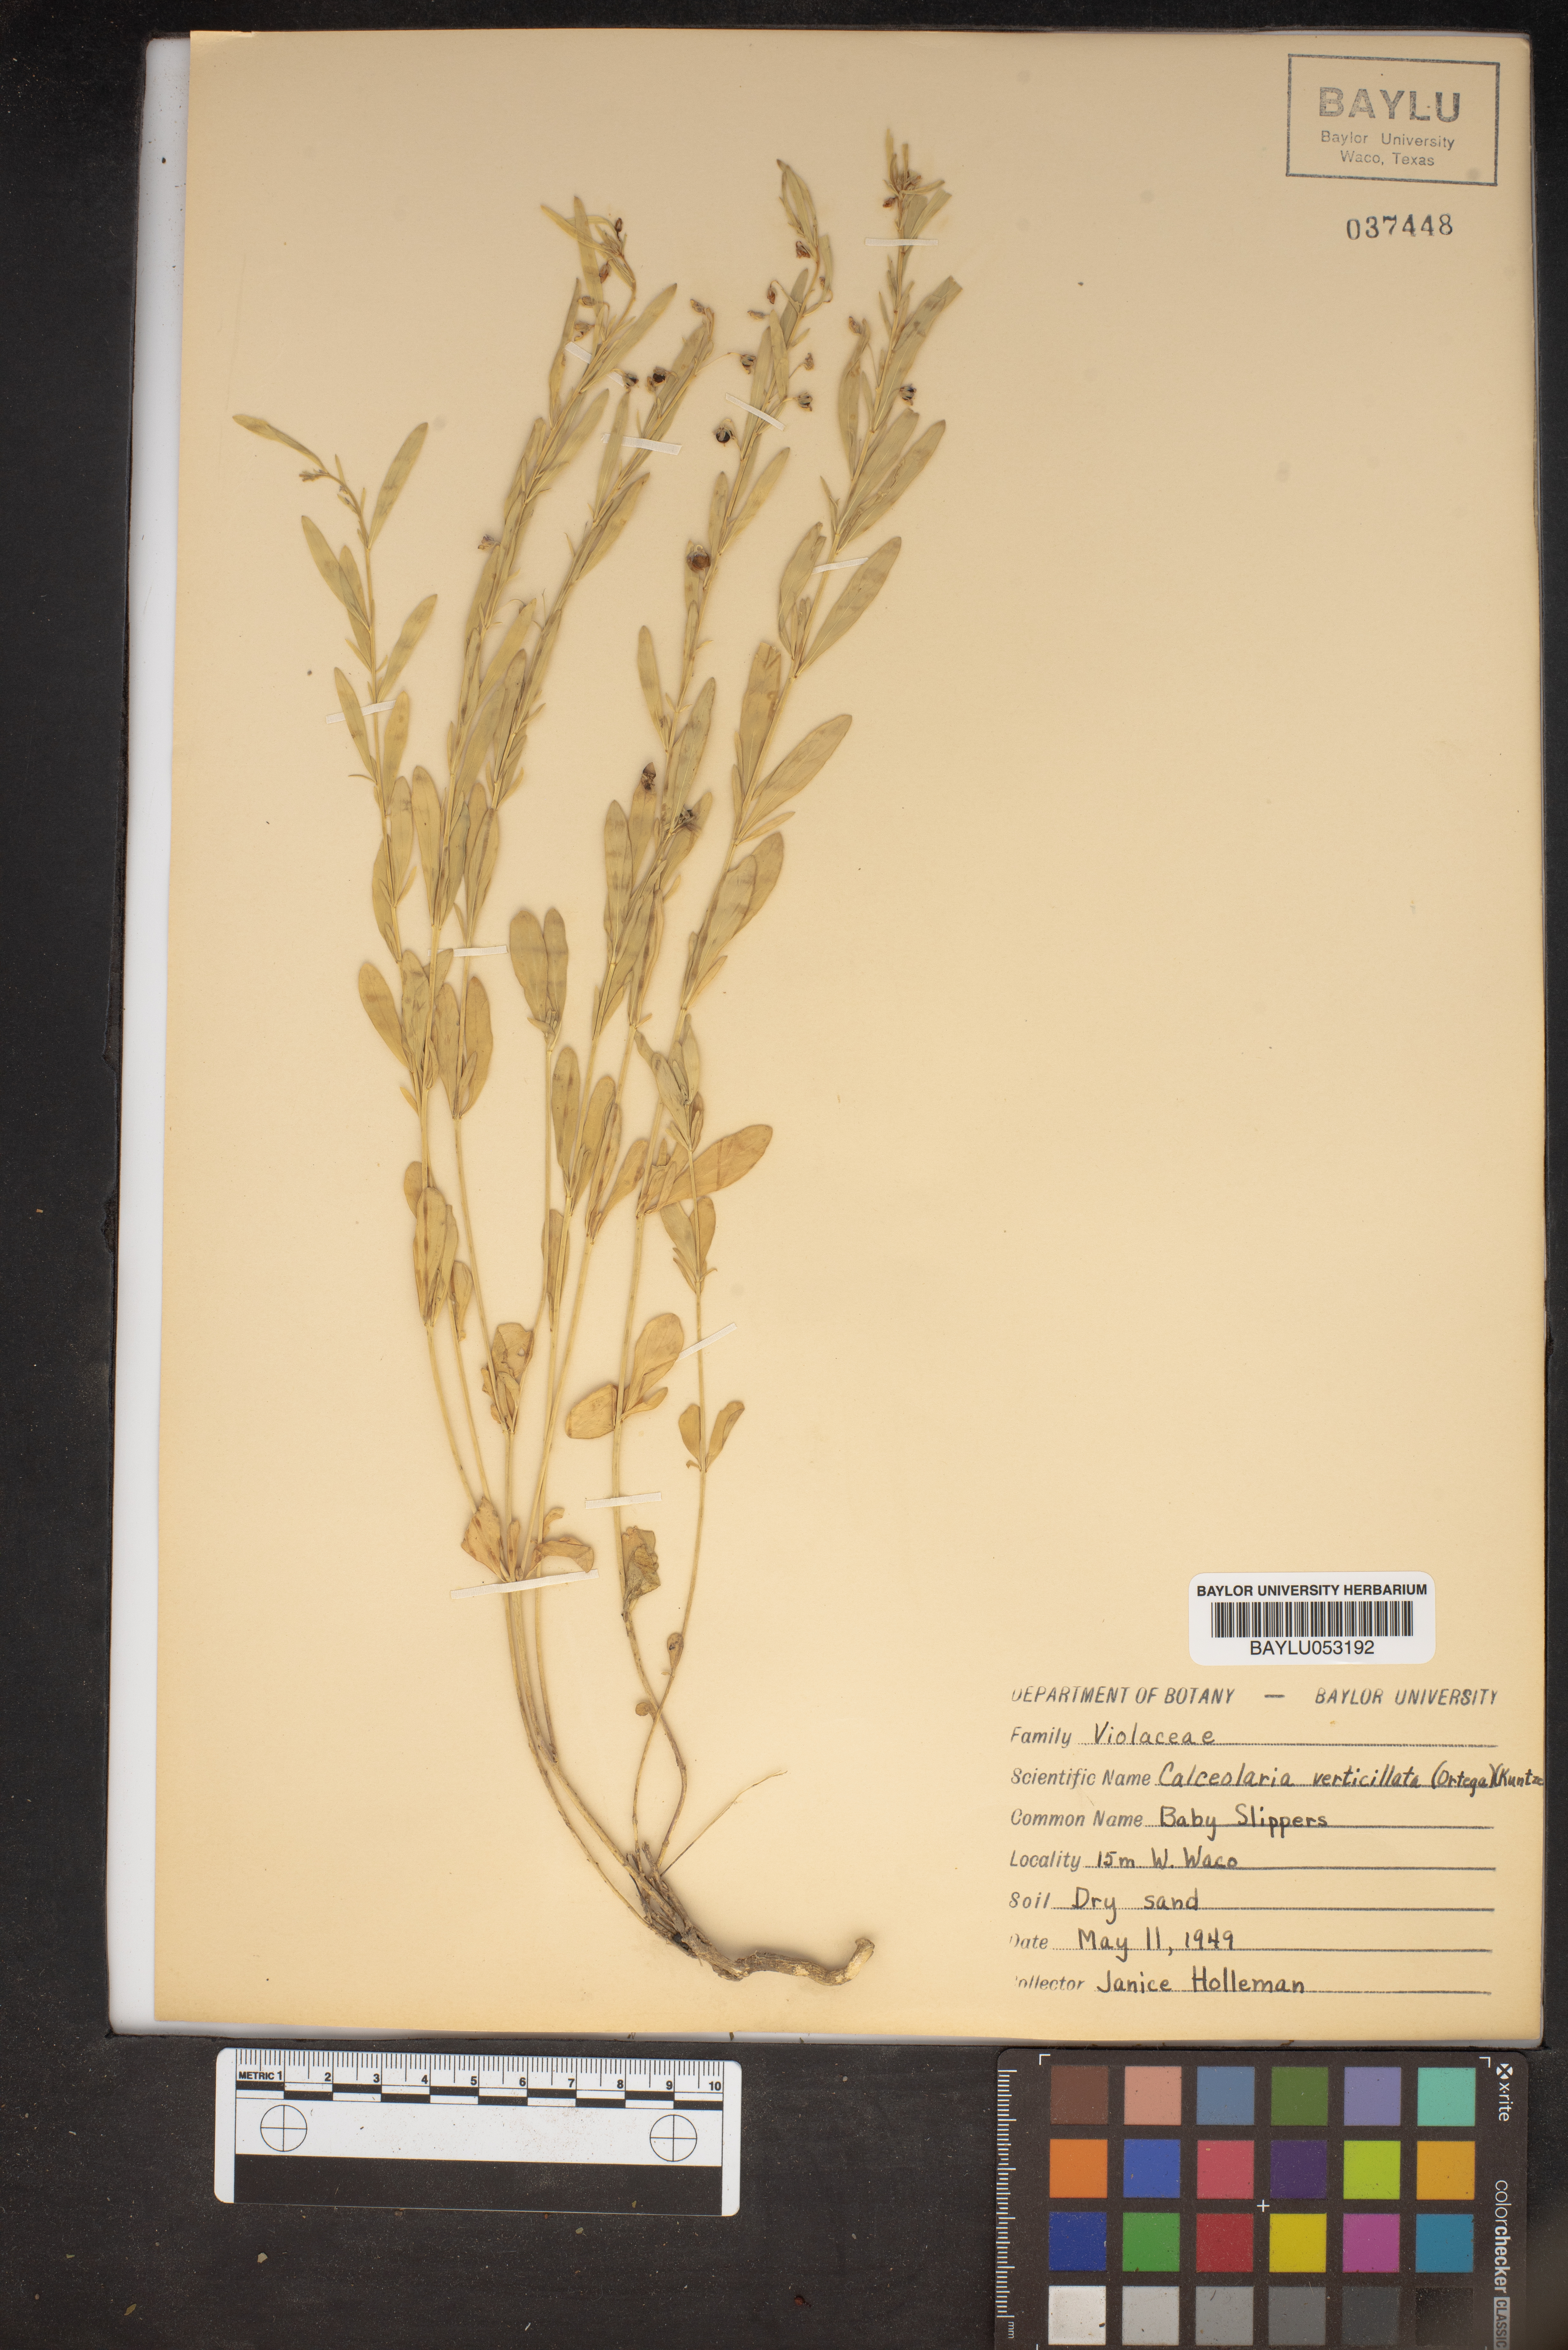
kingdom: Plantae
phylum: Tracheophyta
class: Magnoliopsida
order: Malpighiales
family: Violaceae
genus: Pombalia
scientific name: Pombalia verticillata
